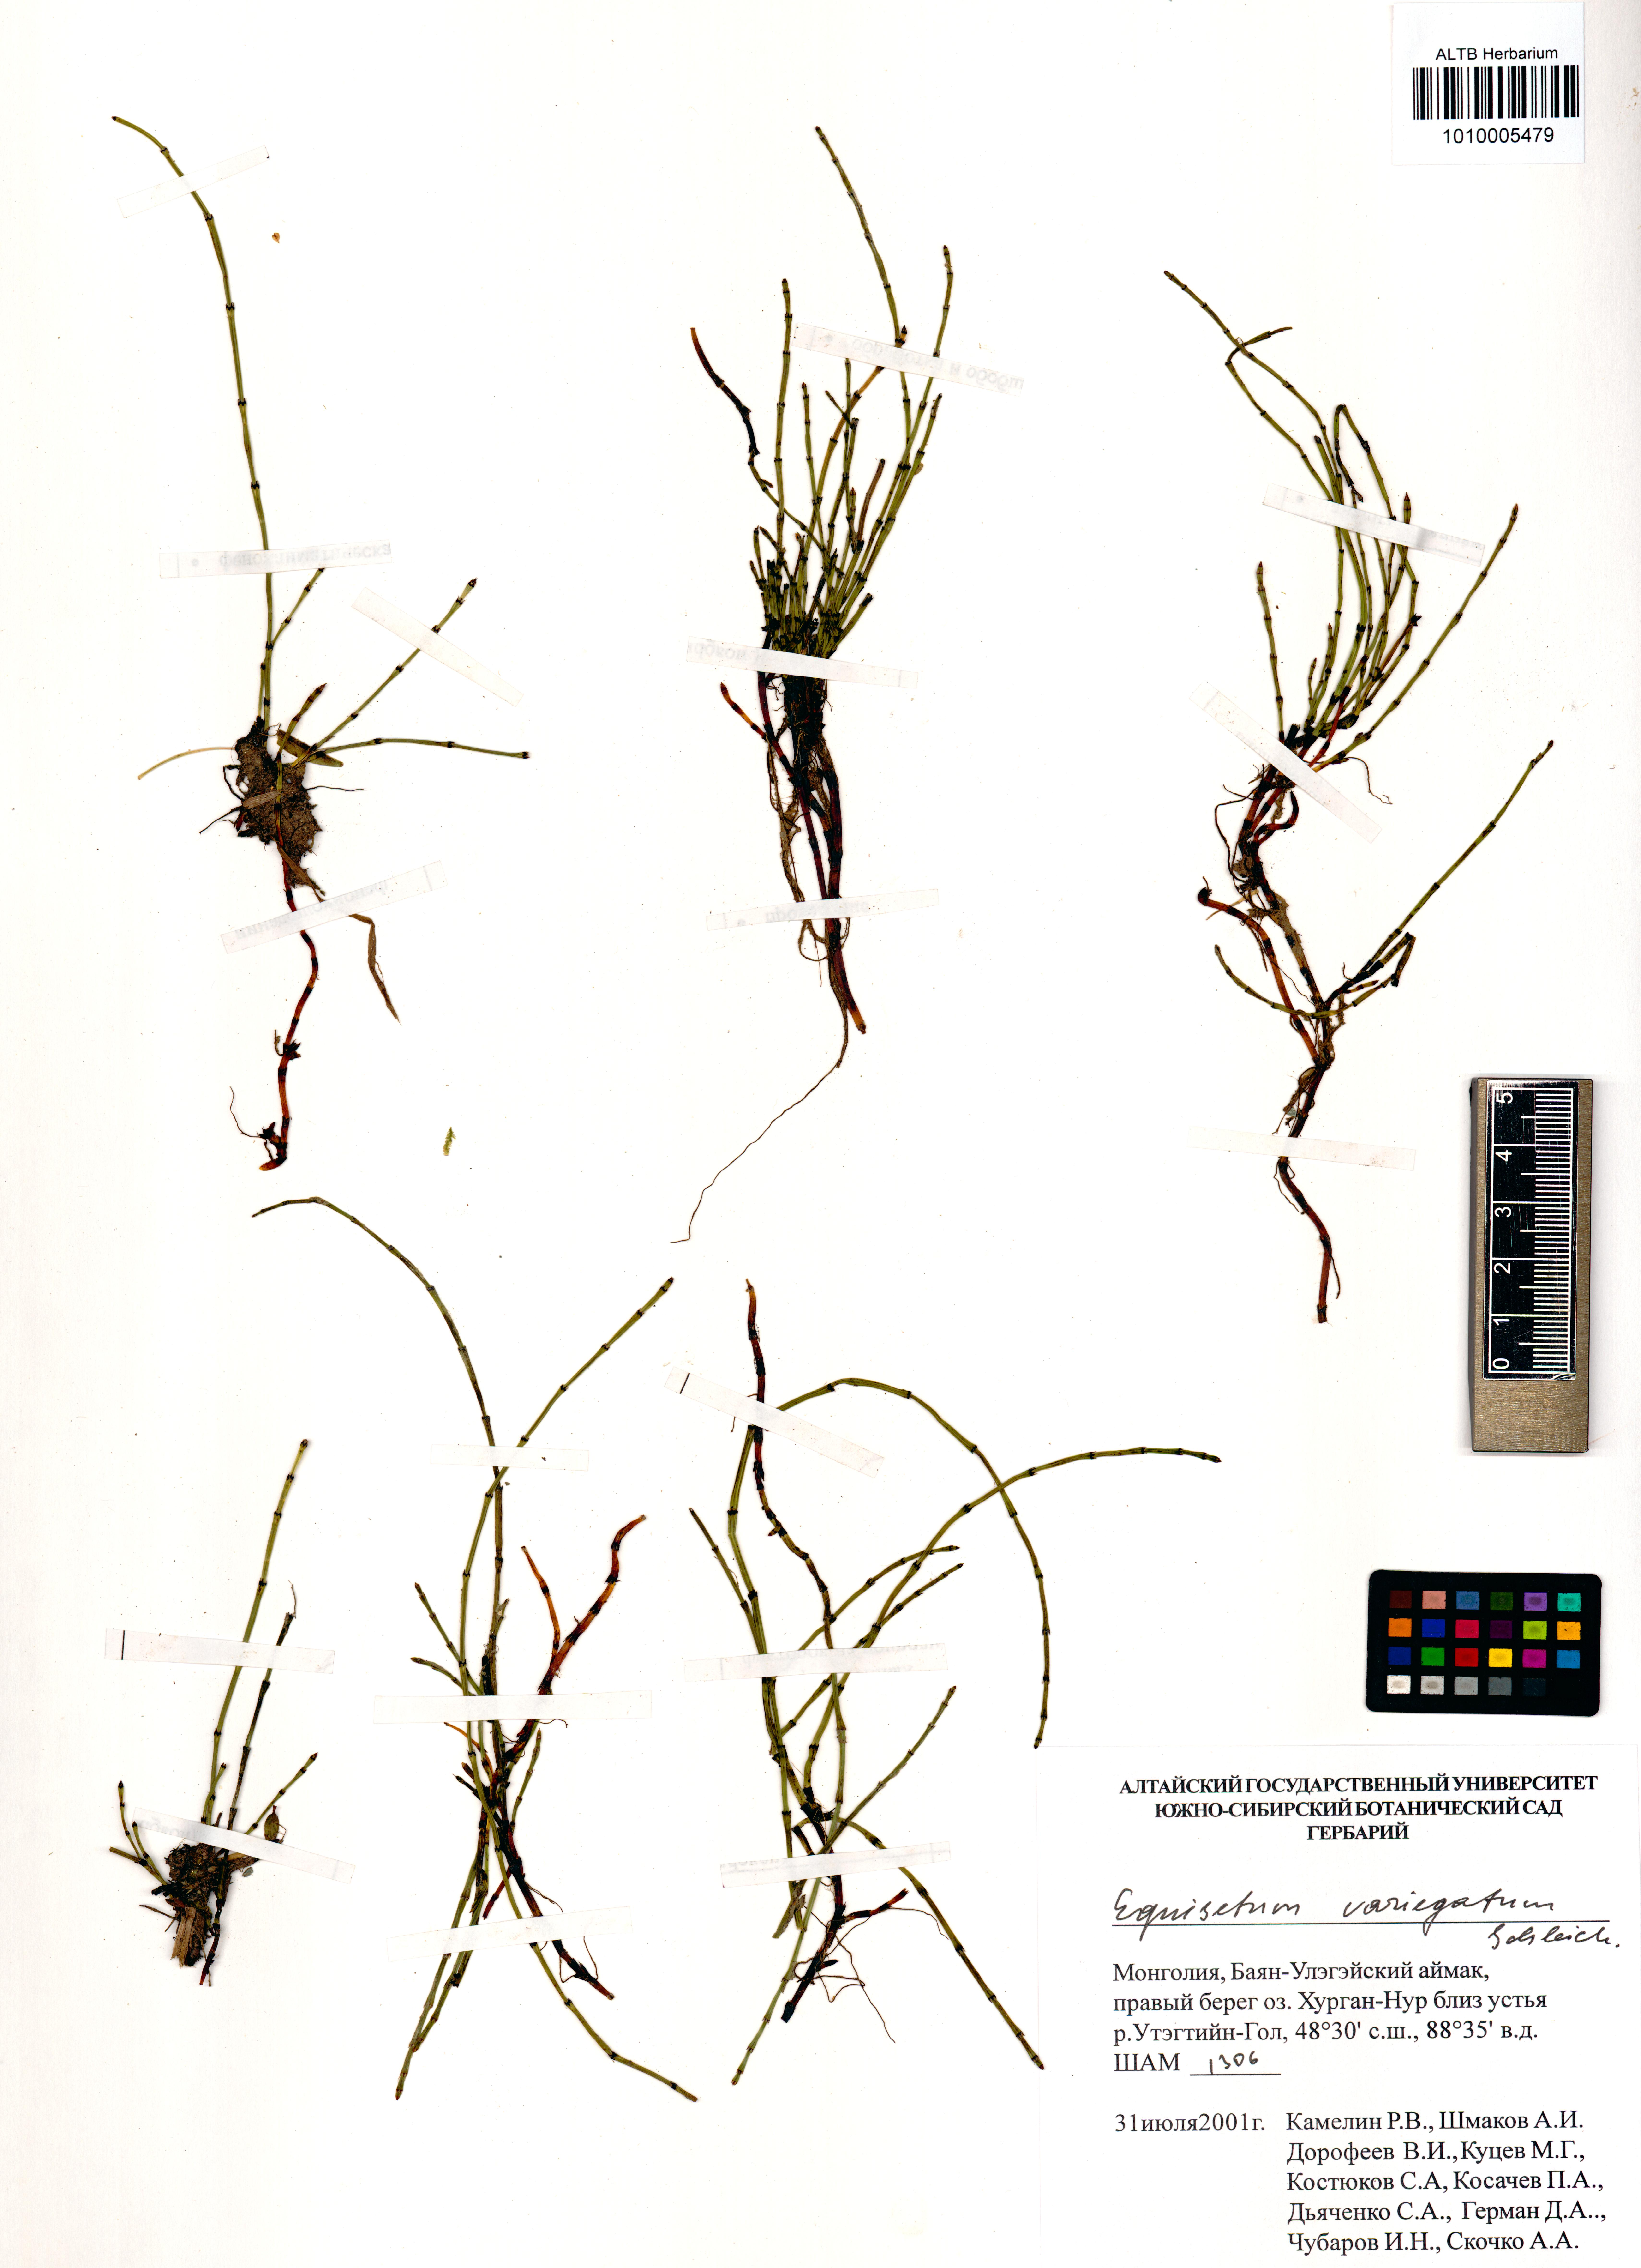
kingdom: Plantae
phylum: Tracheophyta
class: Polypodiopsida
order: Equisetales
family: Equisetaceae
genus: Equisetum
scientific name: Equisetum variegatum
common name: Variegated horsetail
